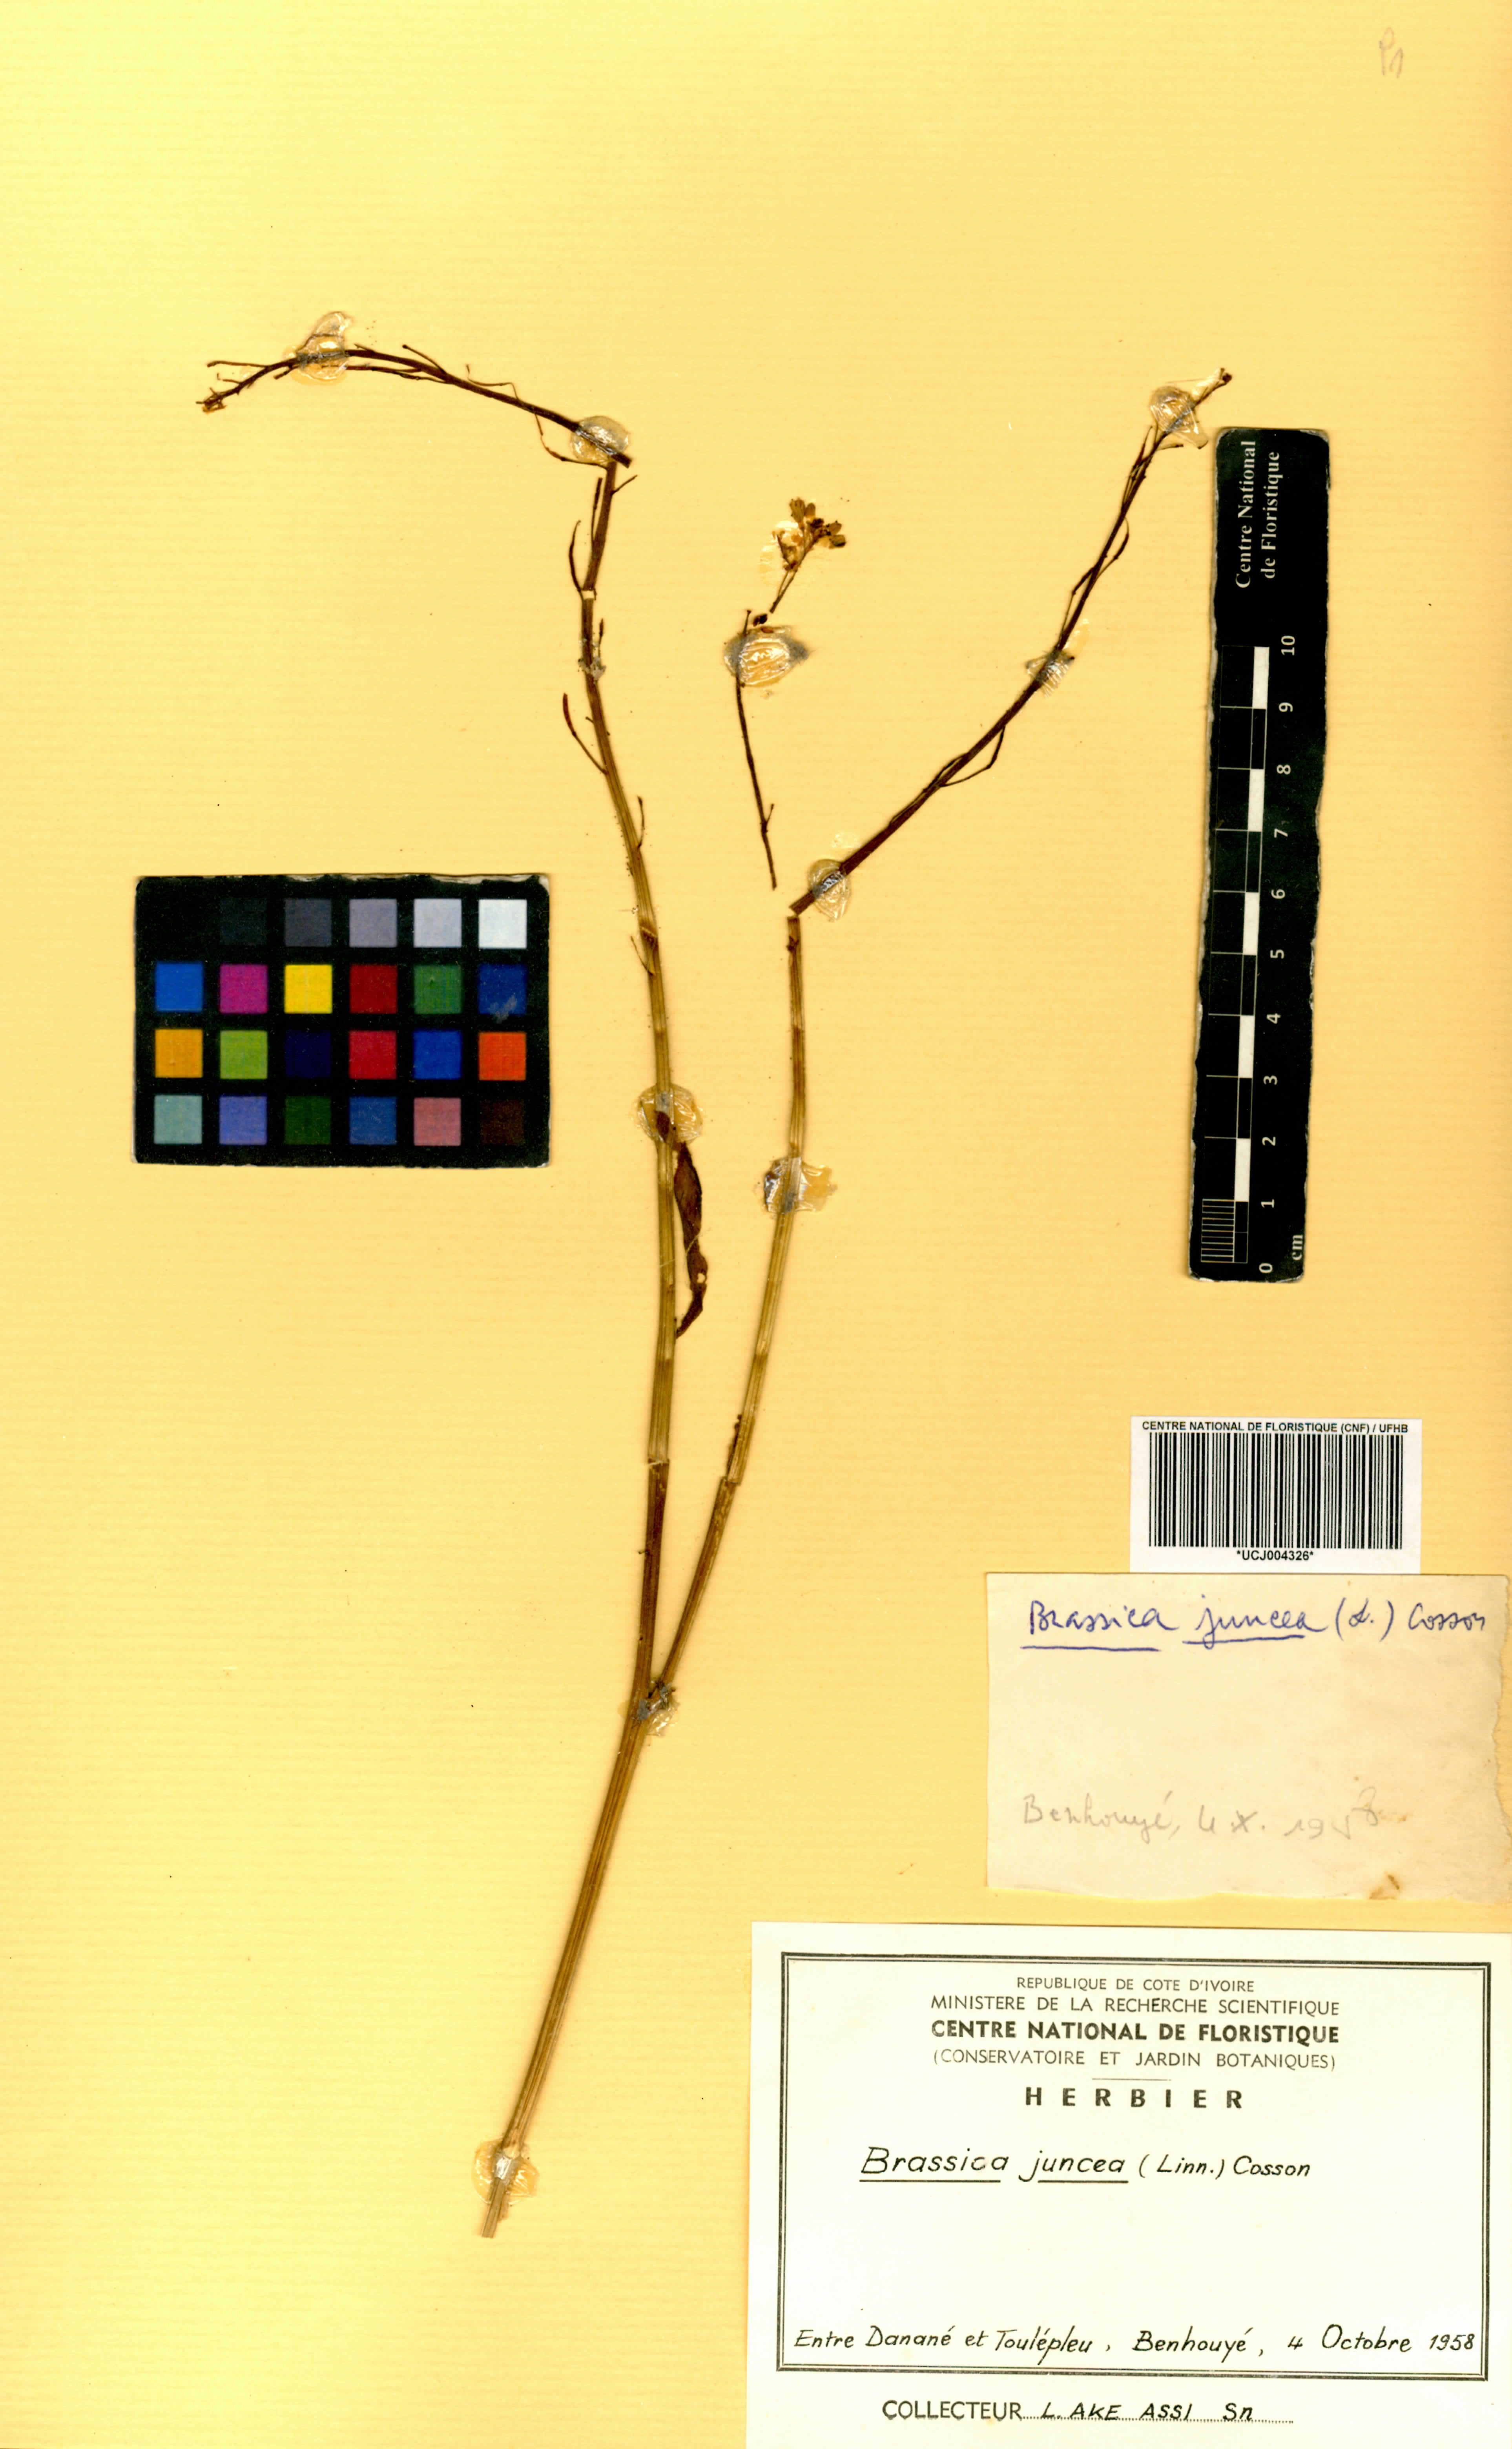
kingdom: Plantae
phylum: Tracheophyta
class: Magnoliopsida
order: Brassicales
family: Brassicaceae
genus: Brassica
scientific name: Brassica juncea
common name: Brown mustard
